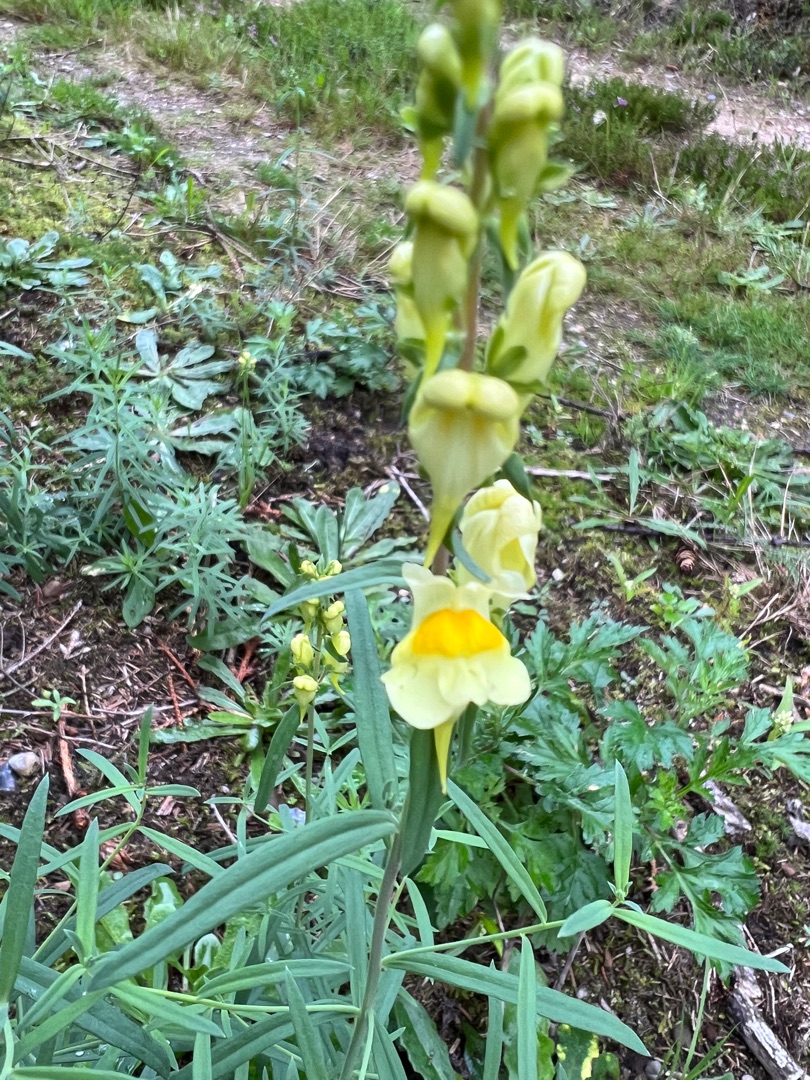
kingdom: Plantae
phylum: Tracheophyta
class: Magnoliopsida
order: Lamiales
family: Plantaginaceae
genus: Linaria
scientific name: Linaria vulgaris
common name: Almindelig torskemund
